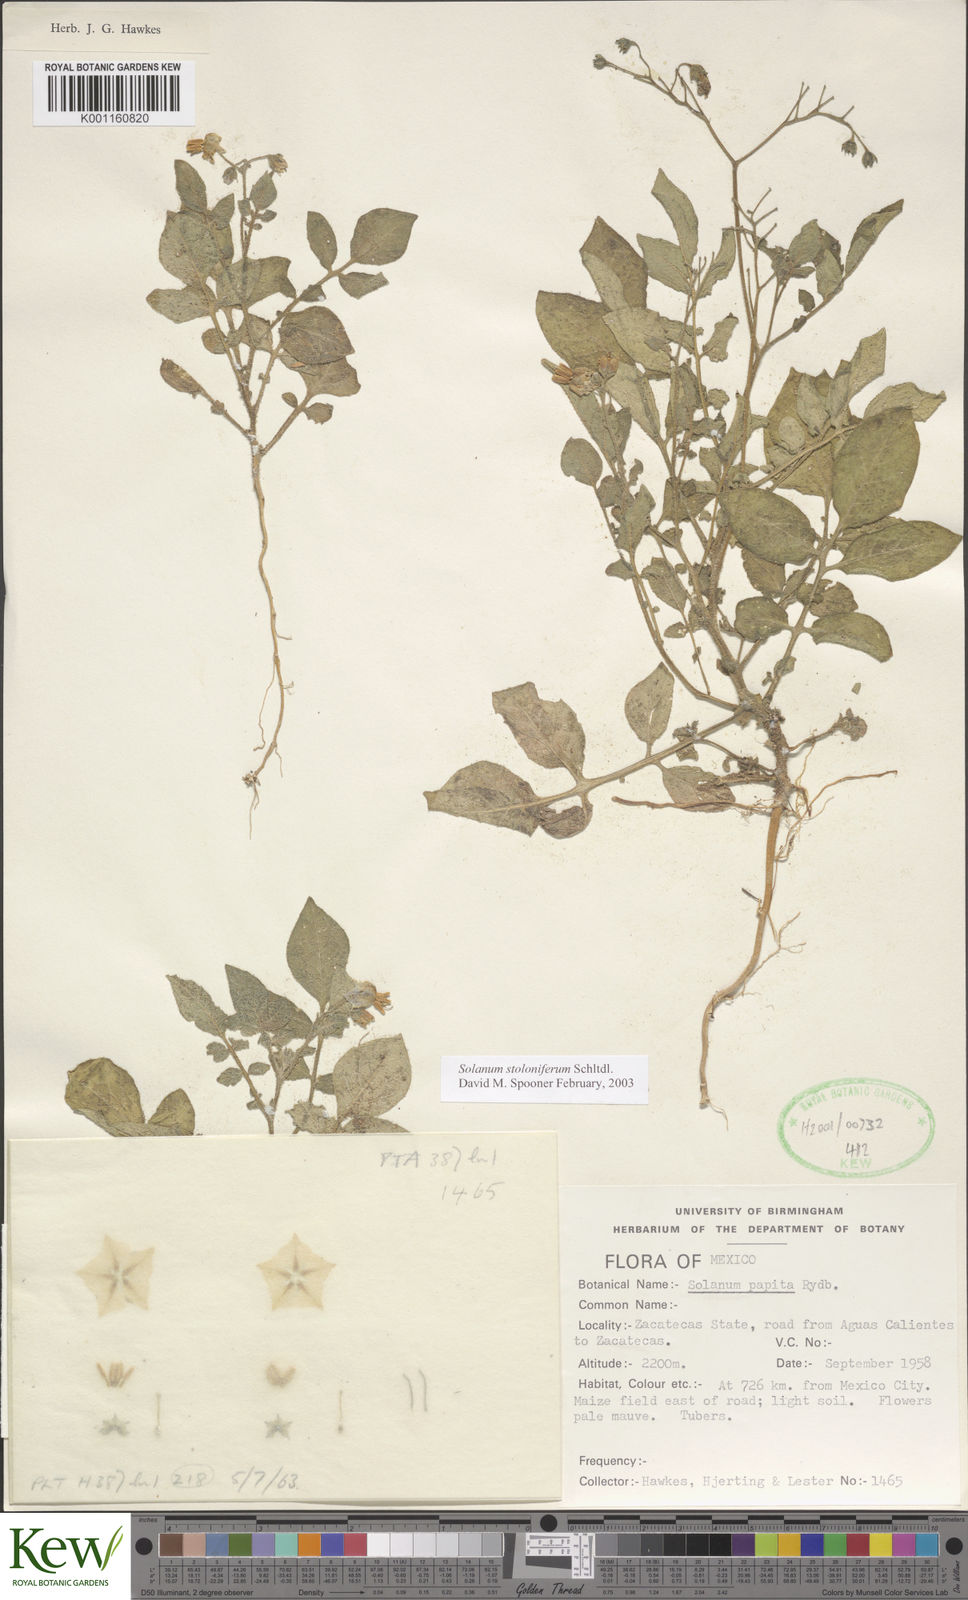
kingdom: Plantae
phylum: Tracheophyta
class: Magnoliopsida
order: Solanales
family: Solanaceae
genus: Solanum
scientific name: Solanum stoloniferum
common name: Fendler's nighshade
